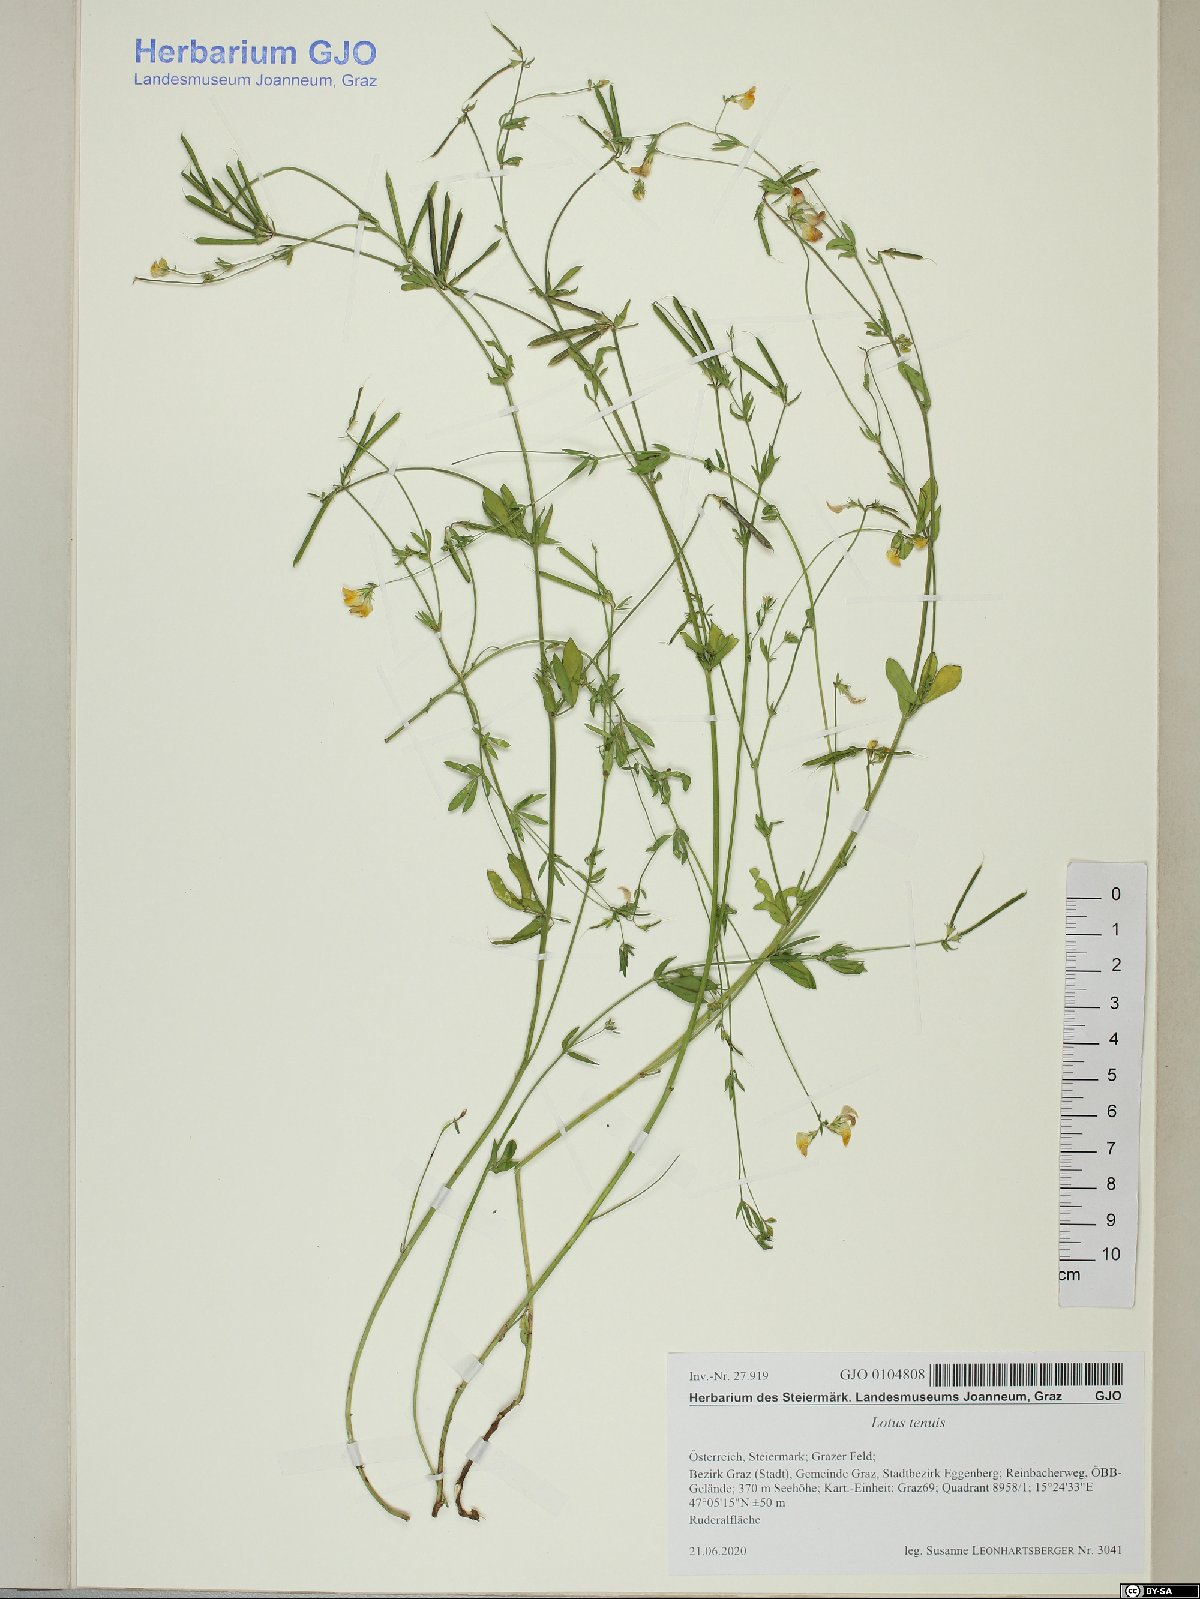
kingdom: Plantae
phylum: Tracheophyta
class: Magnoliopsida
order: Fabales
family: Fabaceae
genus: Lotus
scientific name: Lotus tenuis
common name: Narrow-leaved bird's-foot-trefoil
